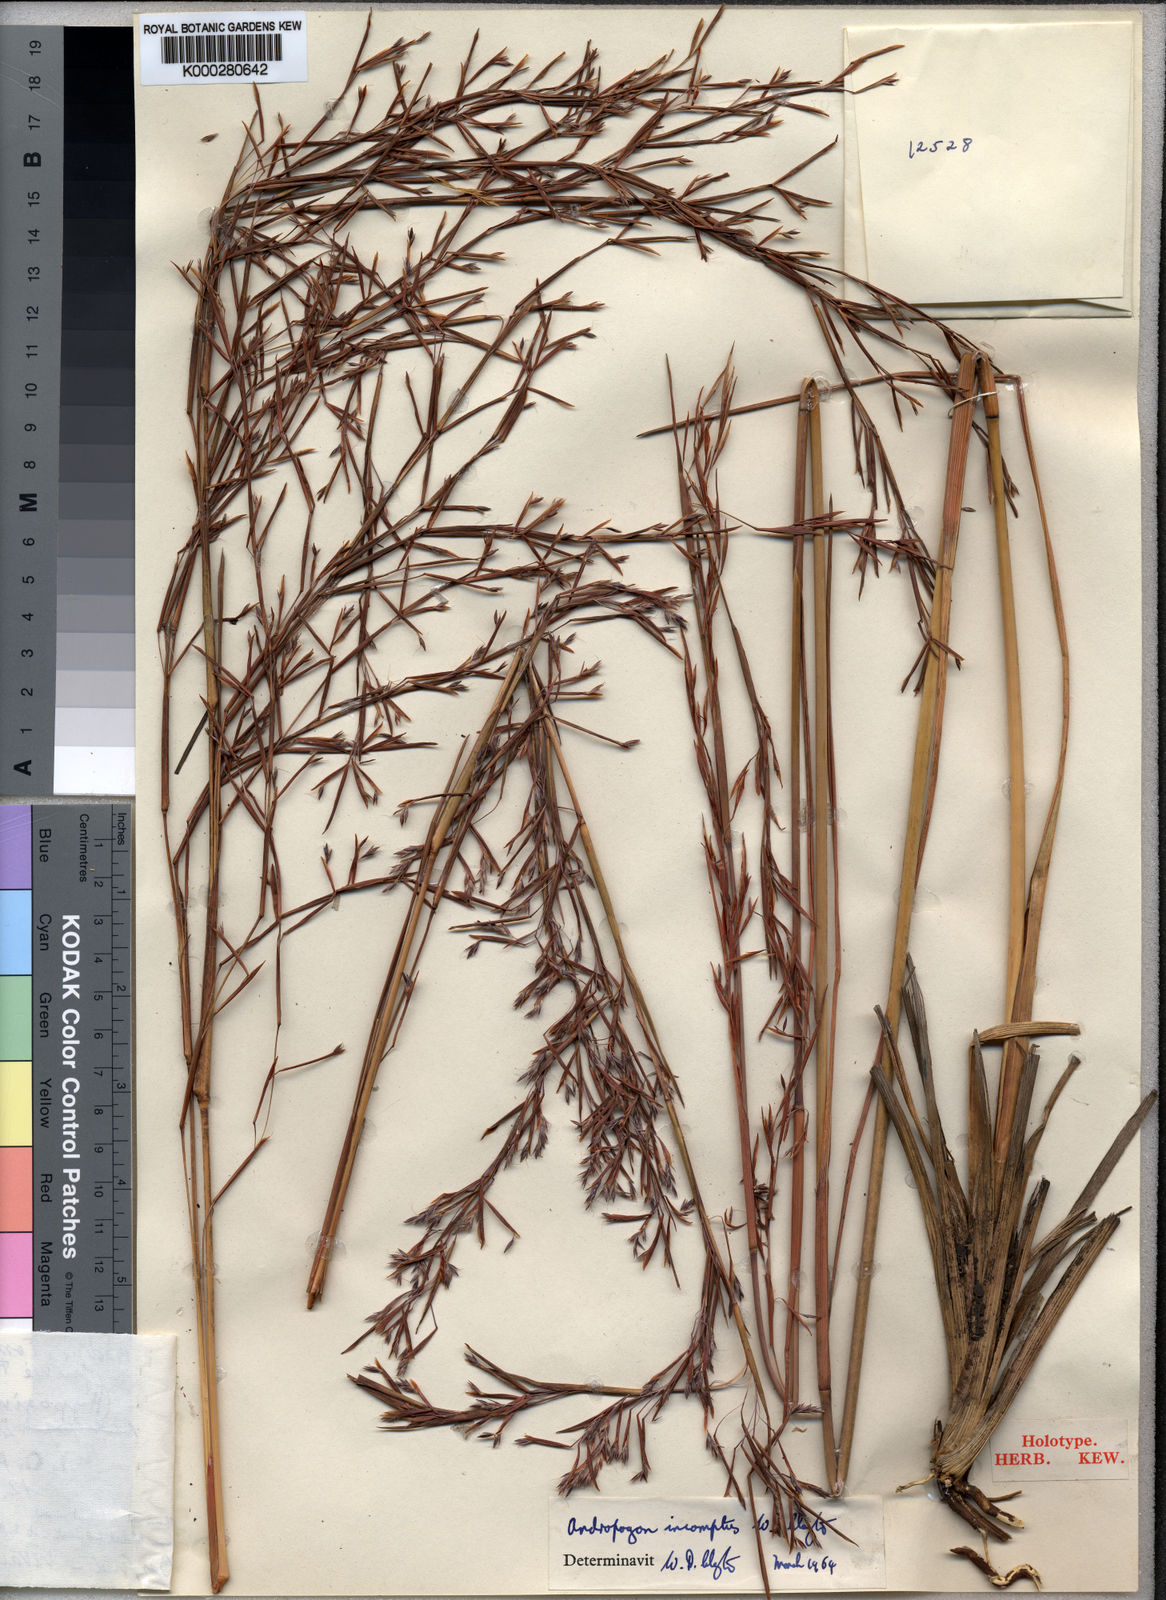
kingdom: Plantae
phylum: Tracheophyta
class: Liliopsida
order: Poales
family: Poaceae
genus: Andropogon
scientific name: Andropogon incomptus
